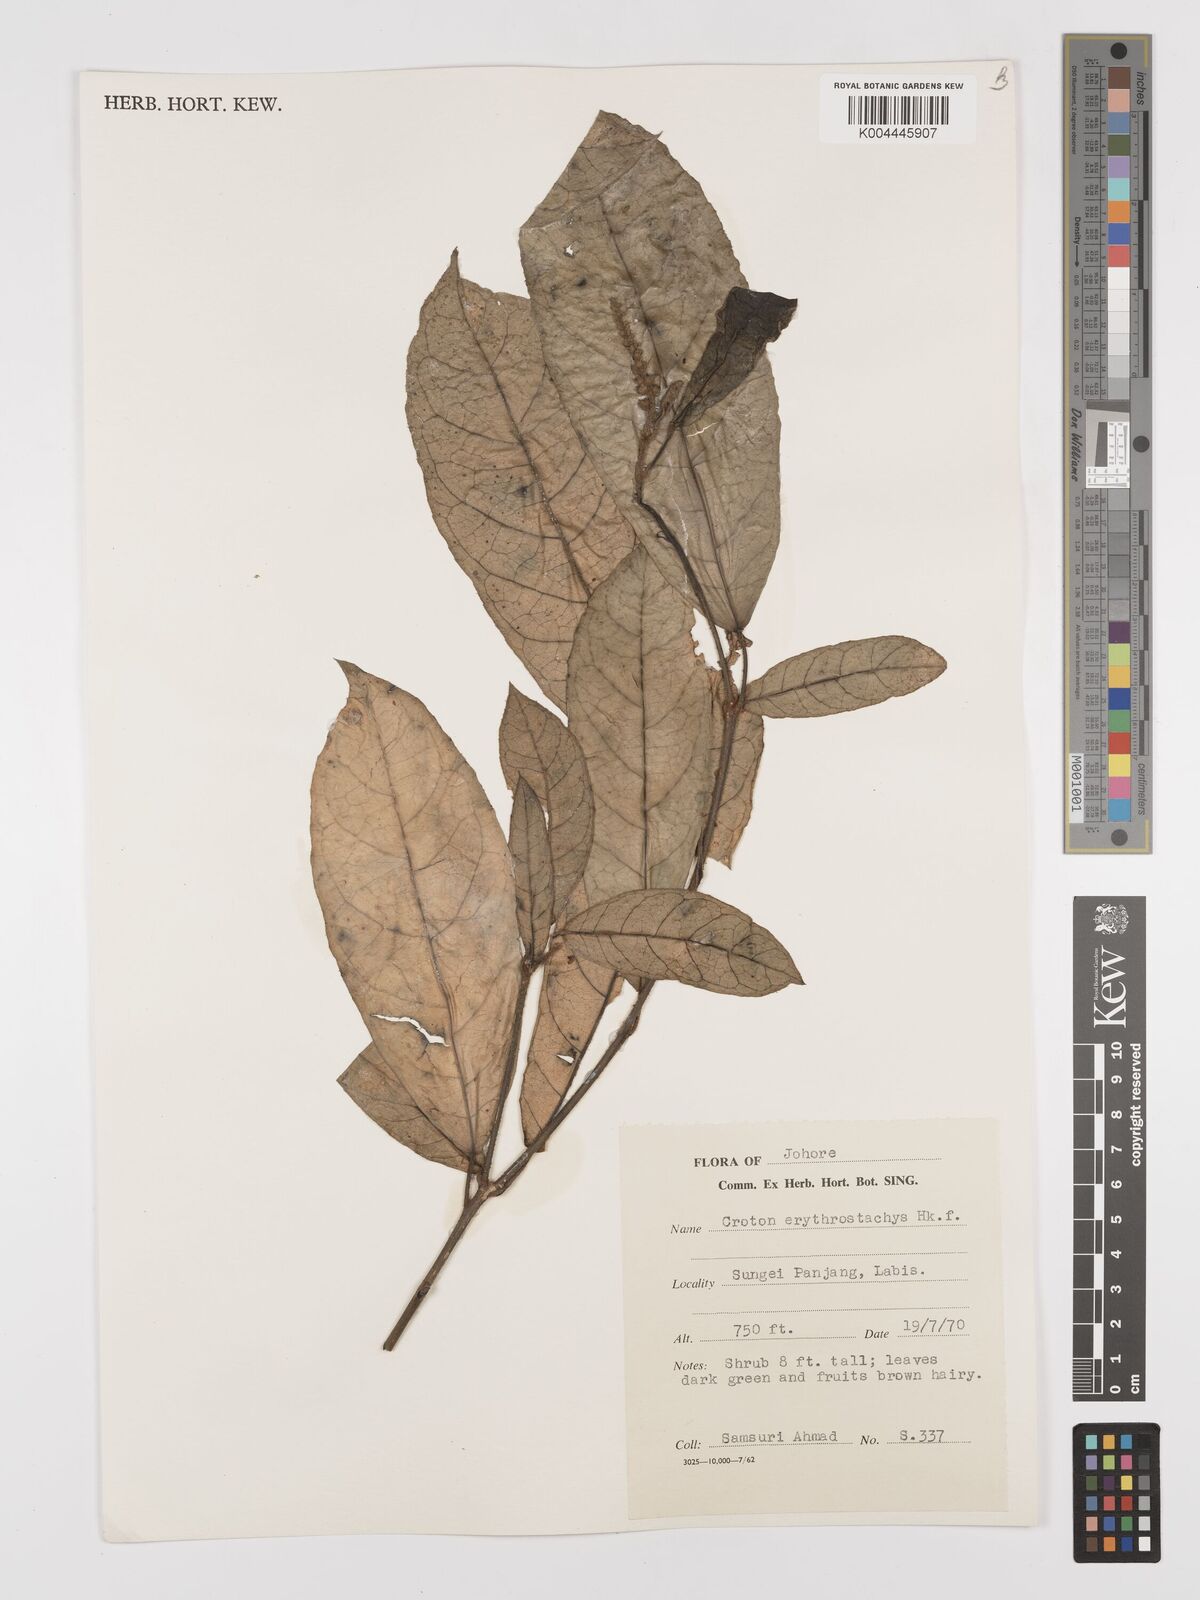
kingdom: Plantae
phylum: Tracheophyta
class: Magnoliopsida
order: Malpighiales
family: Euphorbiaceae
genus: Croton
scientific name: Croton erythrostachys
